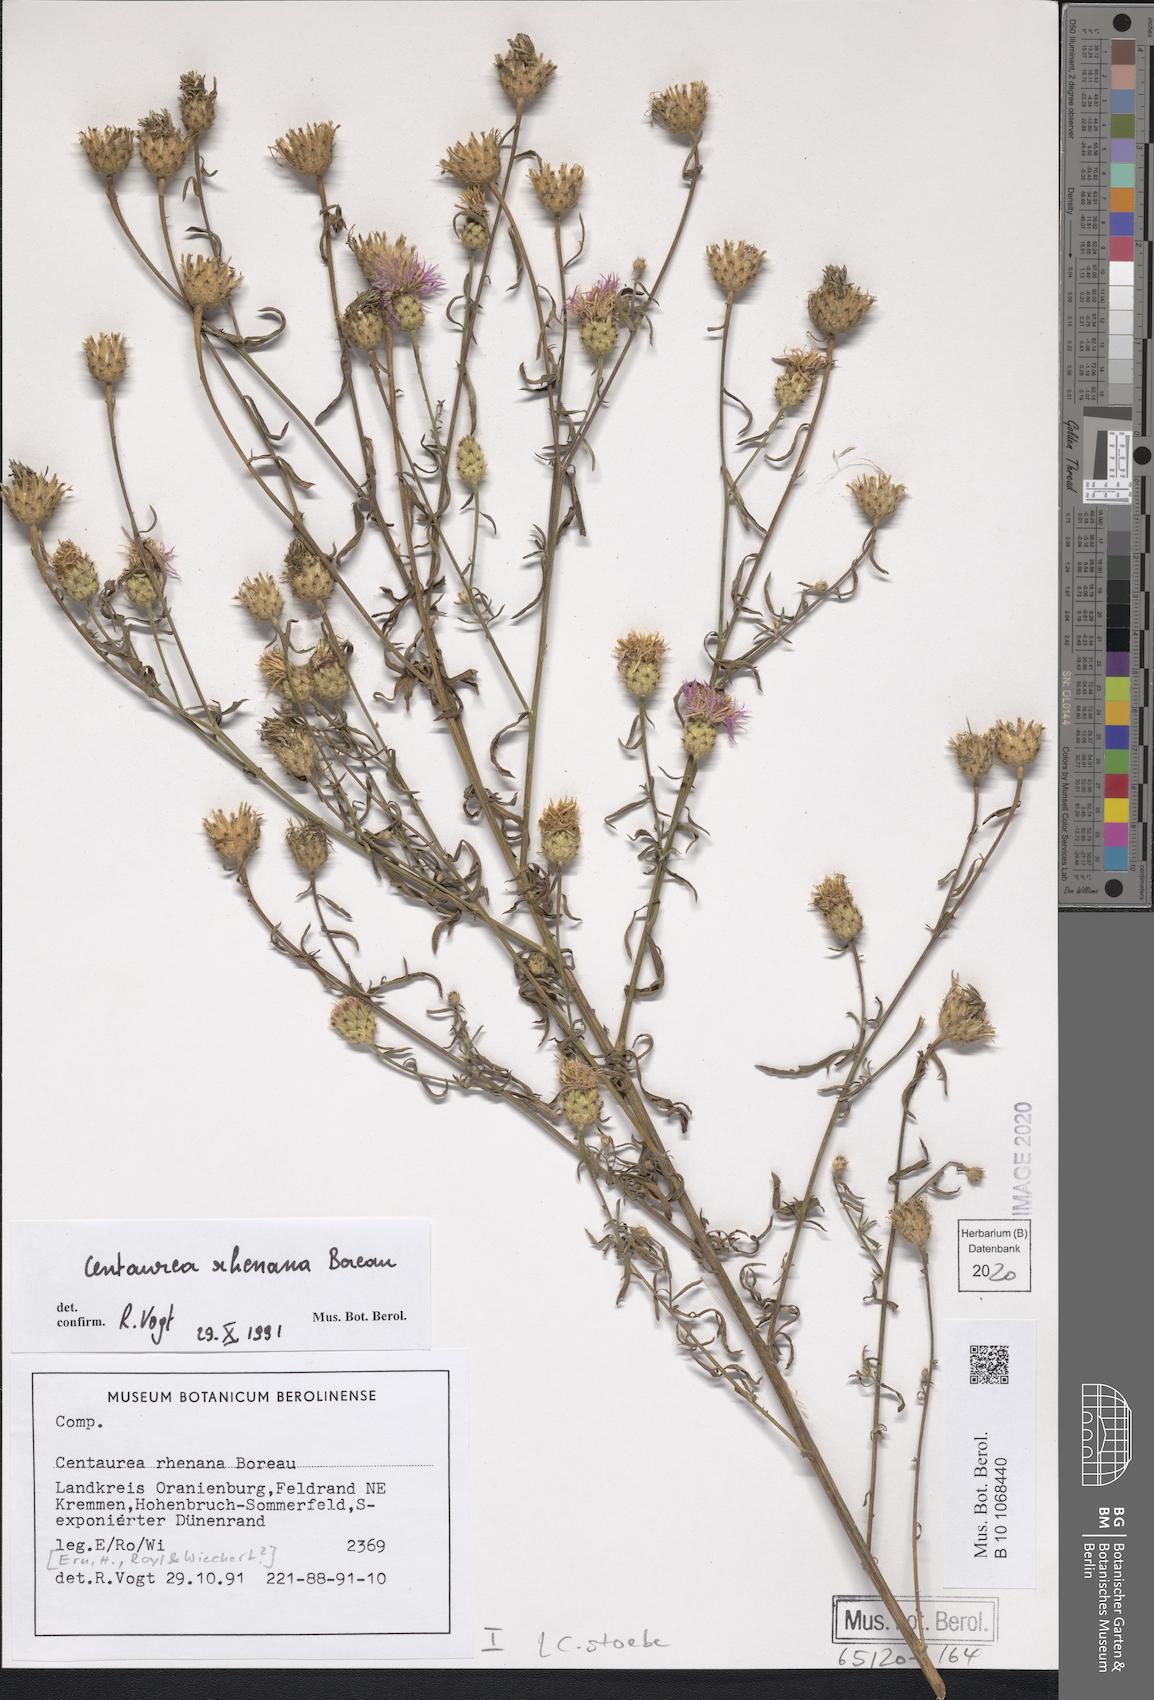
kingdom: Plantae
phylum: Tracheophyta
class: Magnoliopsida
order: Asterales
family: Asteraceae
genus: Centaurea
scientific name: Centaurea stoebe
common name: Spotted knapweed
